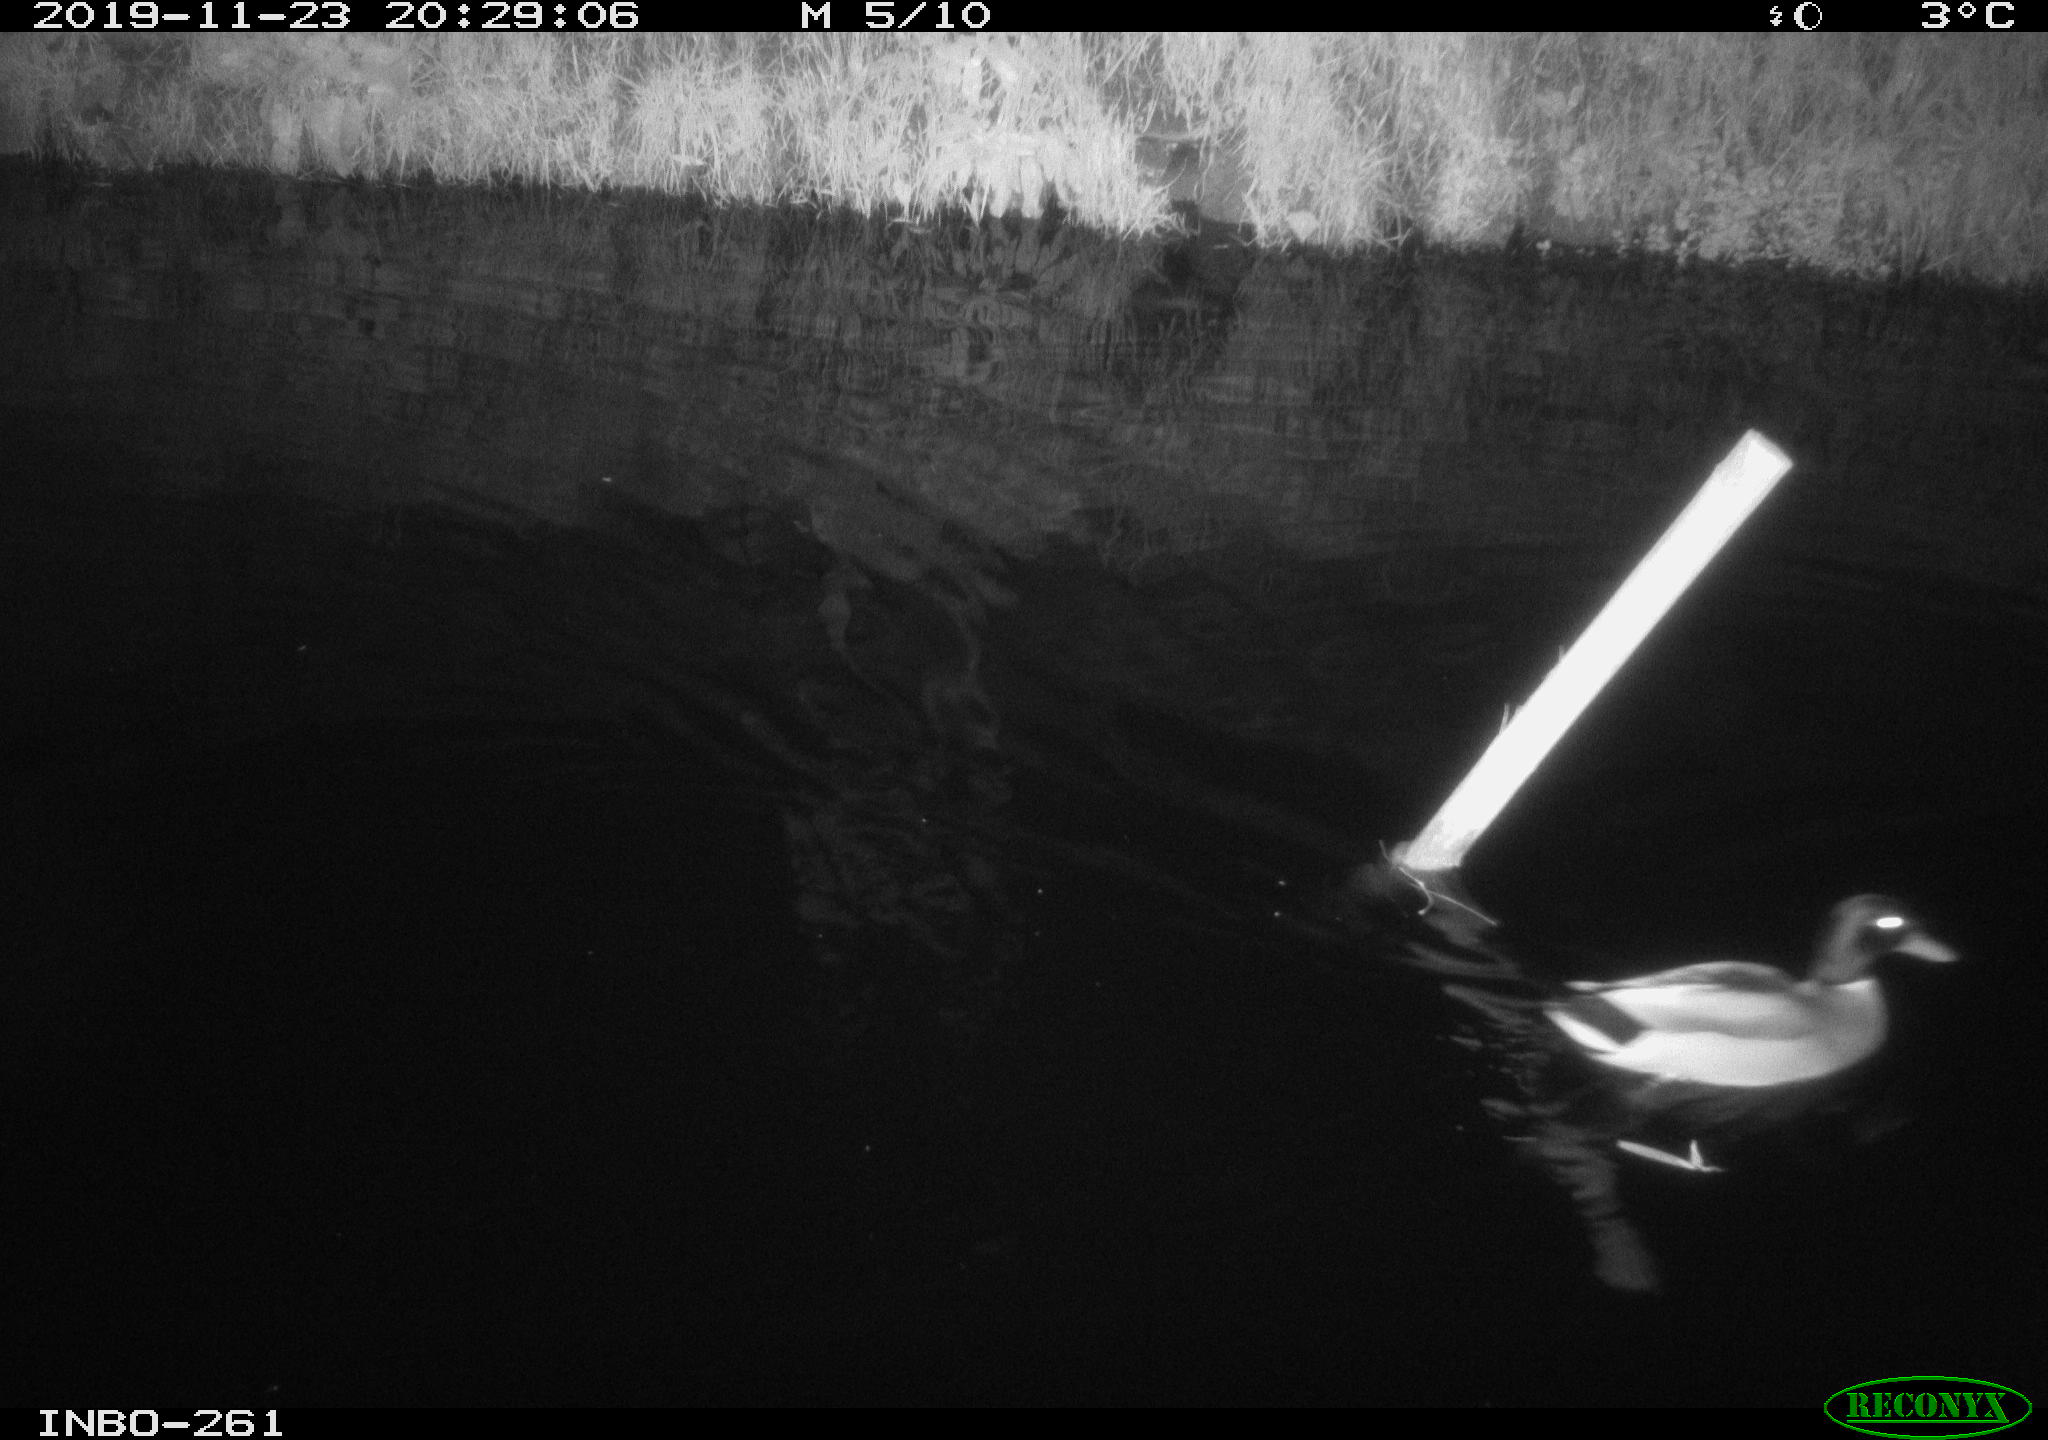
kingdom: Animalia
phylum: Chordata
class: Aves
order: Anseriformes
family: Anatidae
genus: Anas
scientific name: Anas platyrhynchos
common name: Mallard
